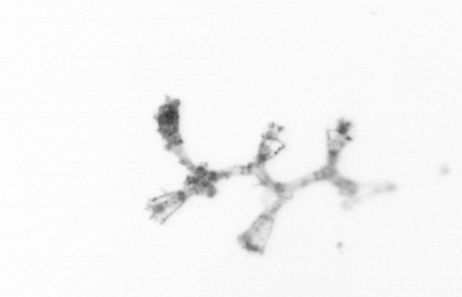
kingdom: Animalia
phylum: Cnidaria
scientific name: Cnidaria
